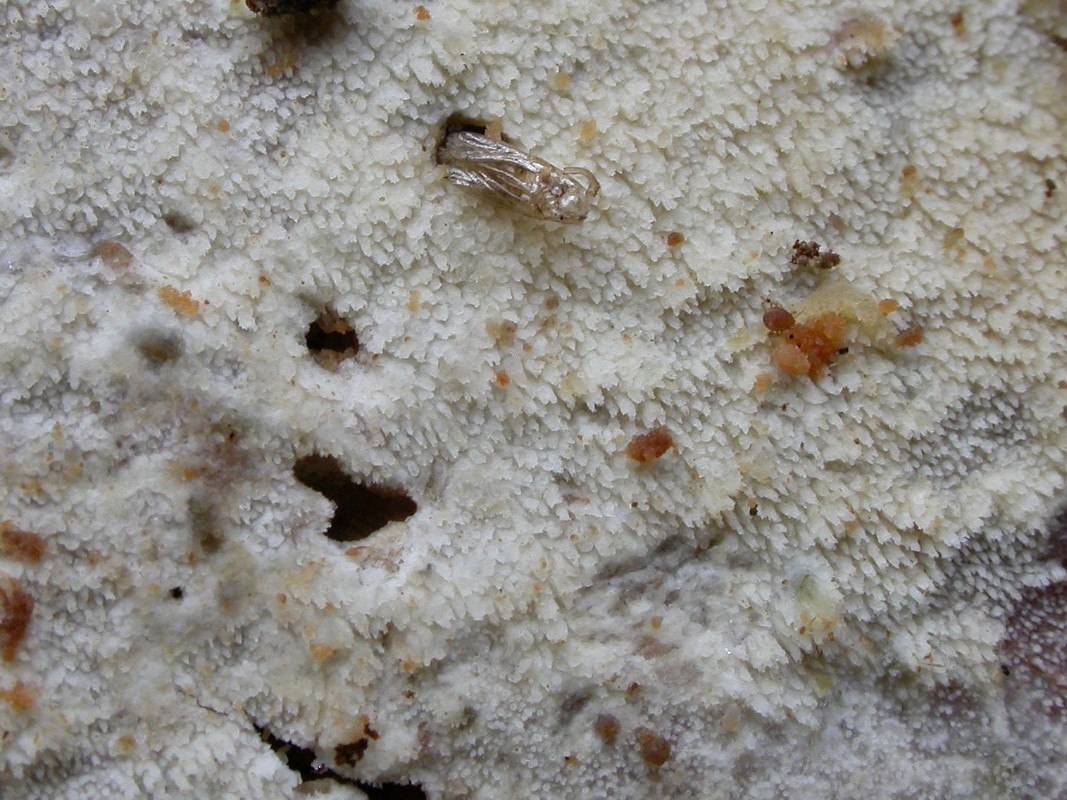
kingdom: Fungi
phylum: Basidiomycota
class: Agaricomycetes
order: Hymenochaetales
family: Rickenellaceae
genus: Resinicium
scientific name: Resinicium bicolor
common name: almindelig vokstand
